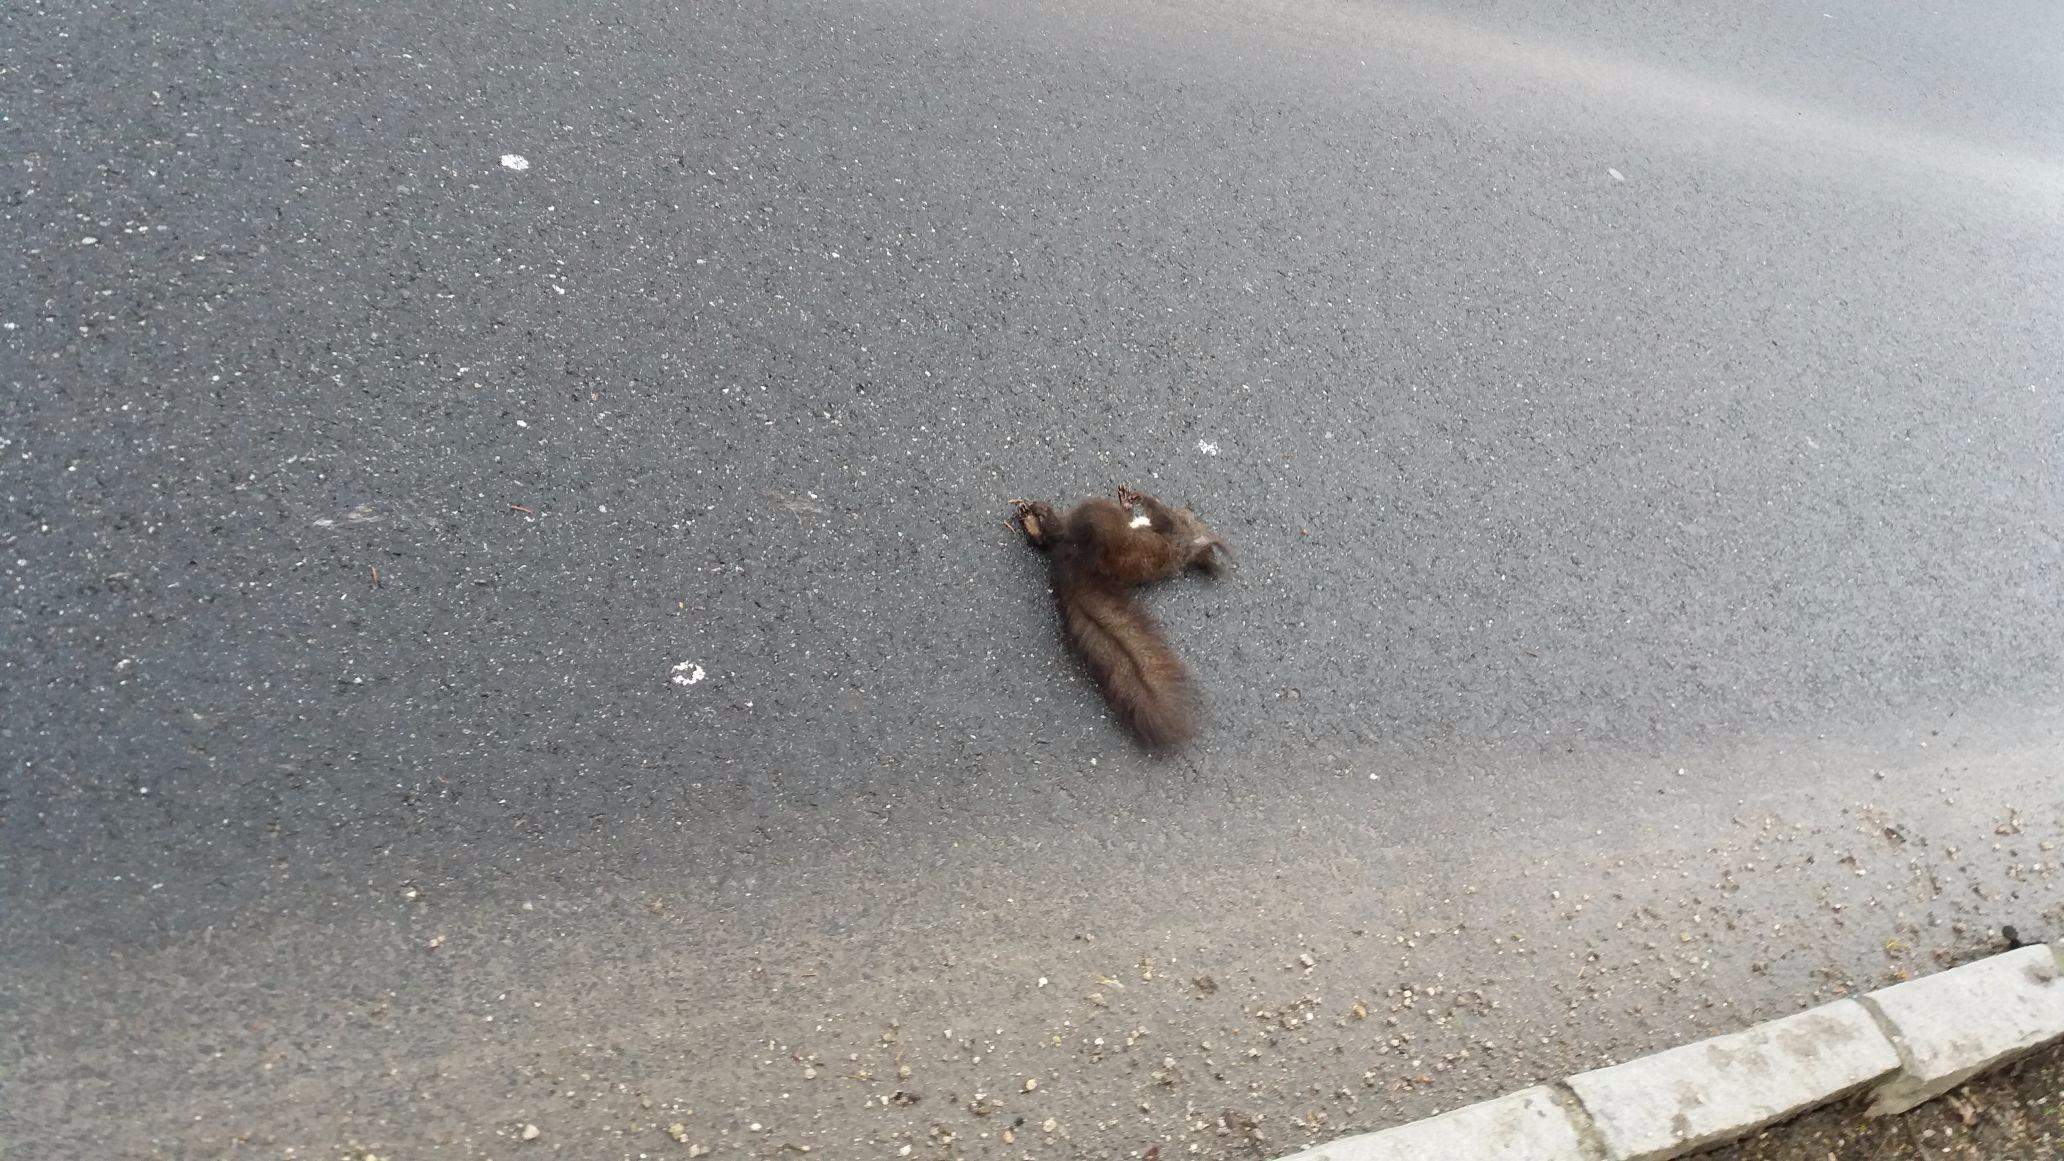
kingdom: Animalia
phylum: Chordata
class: Mammalia
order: Rodentia
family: Sciuridae
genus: Sciurus
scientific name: Sciurus vulgaris
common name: Eurasian red squirrel
